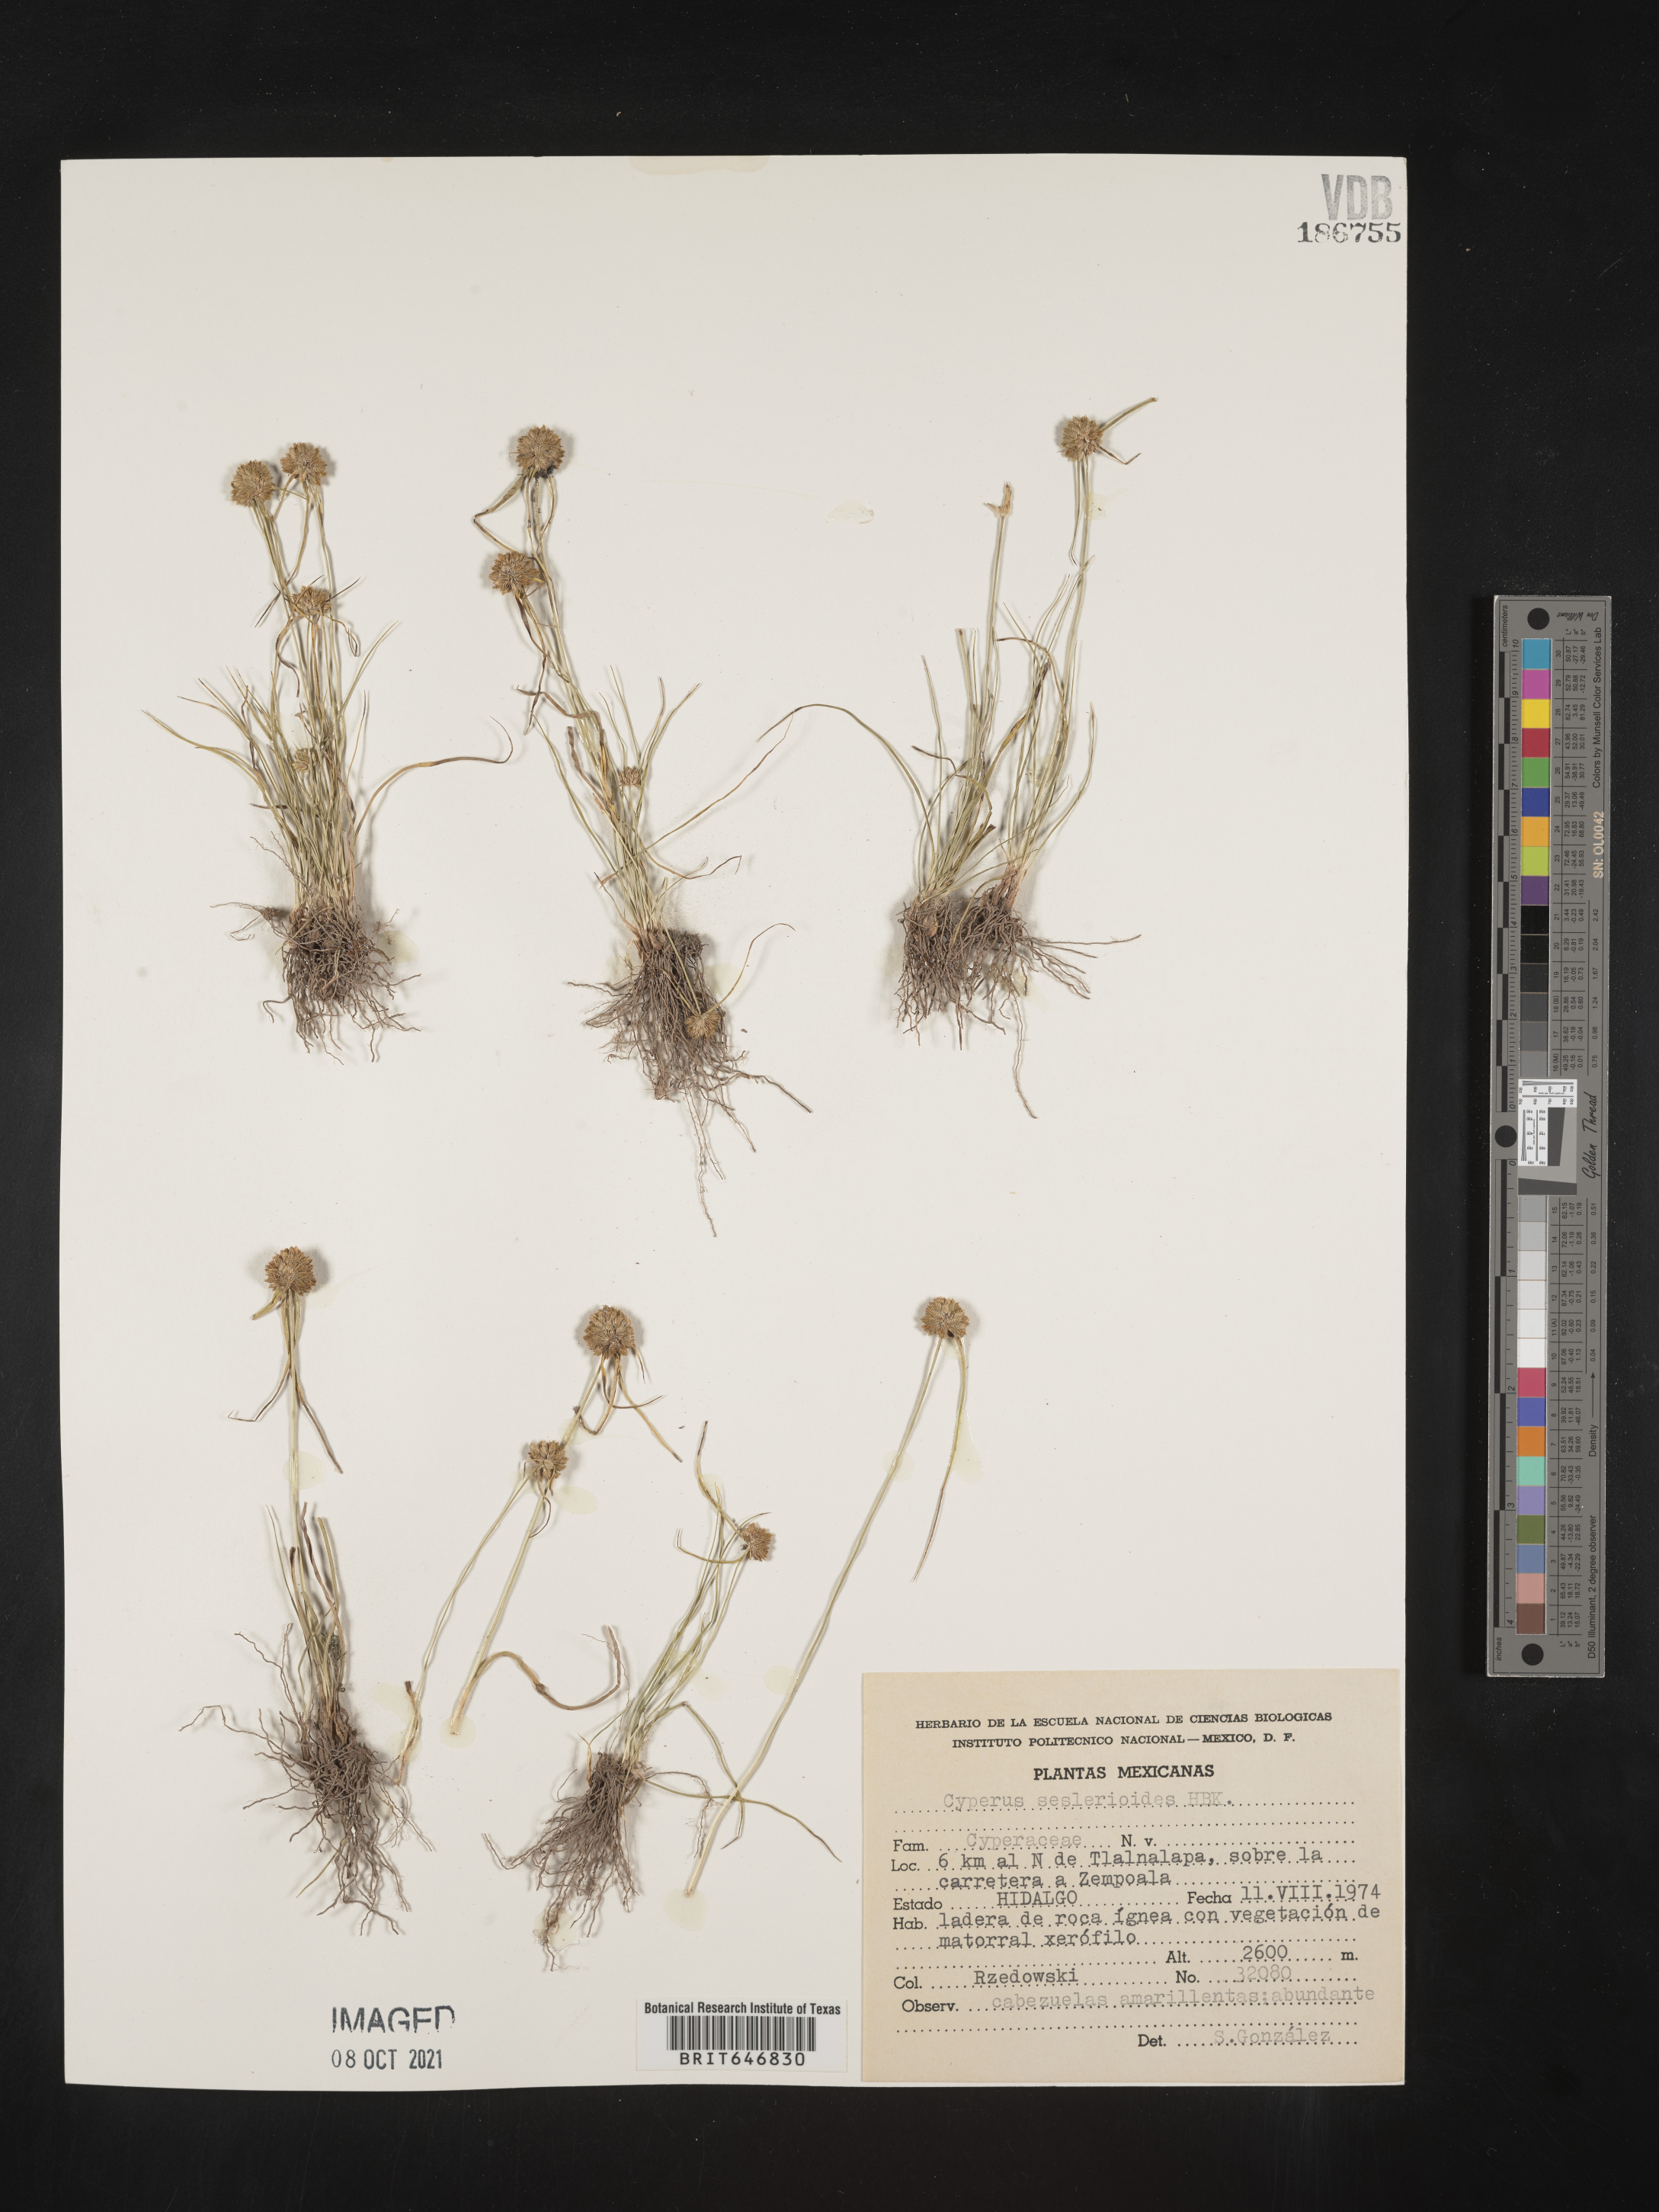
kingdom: Plantae
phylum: Tracheophyta
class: Liliopsida
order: Poales
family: Cyperaceae
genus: Cyperus
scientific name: Cyperus
